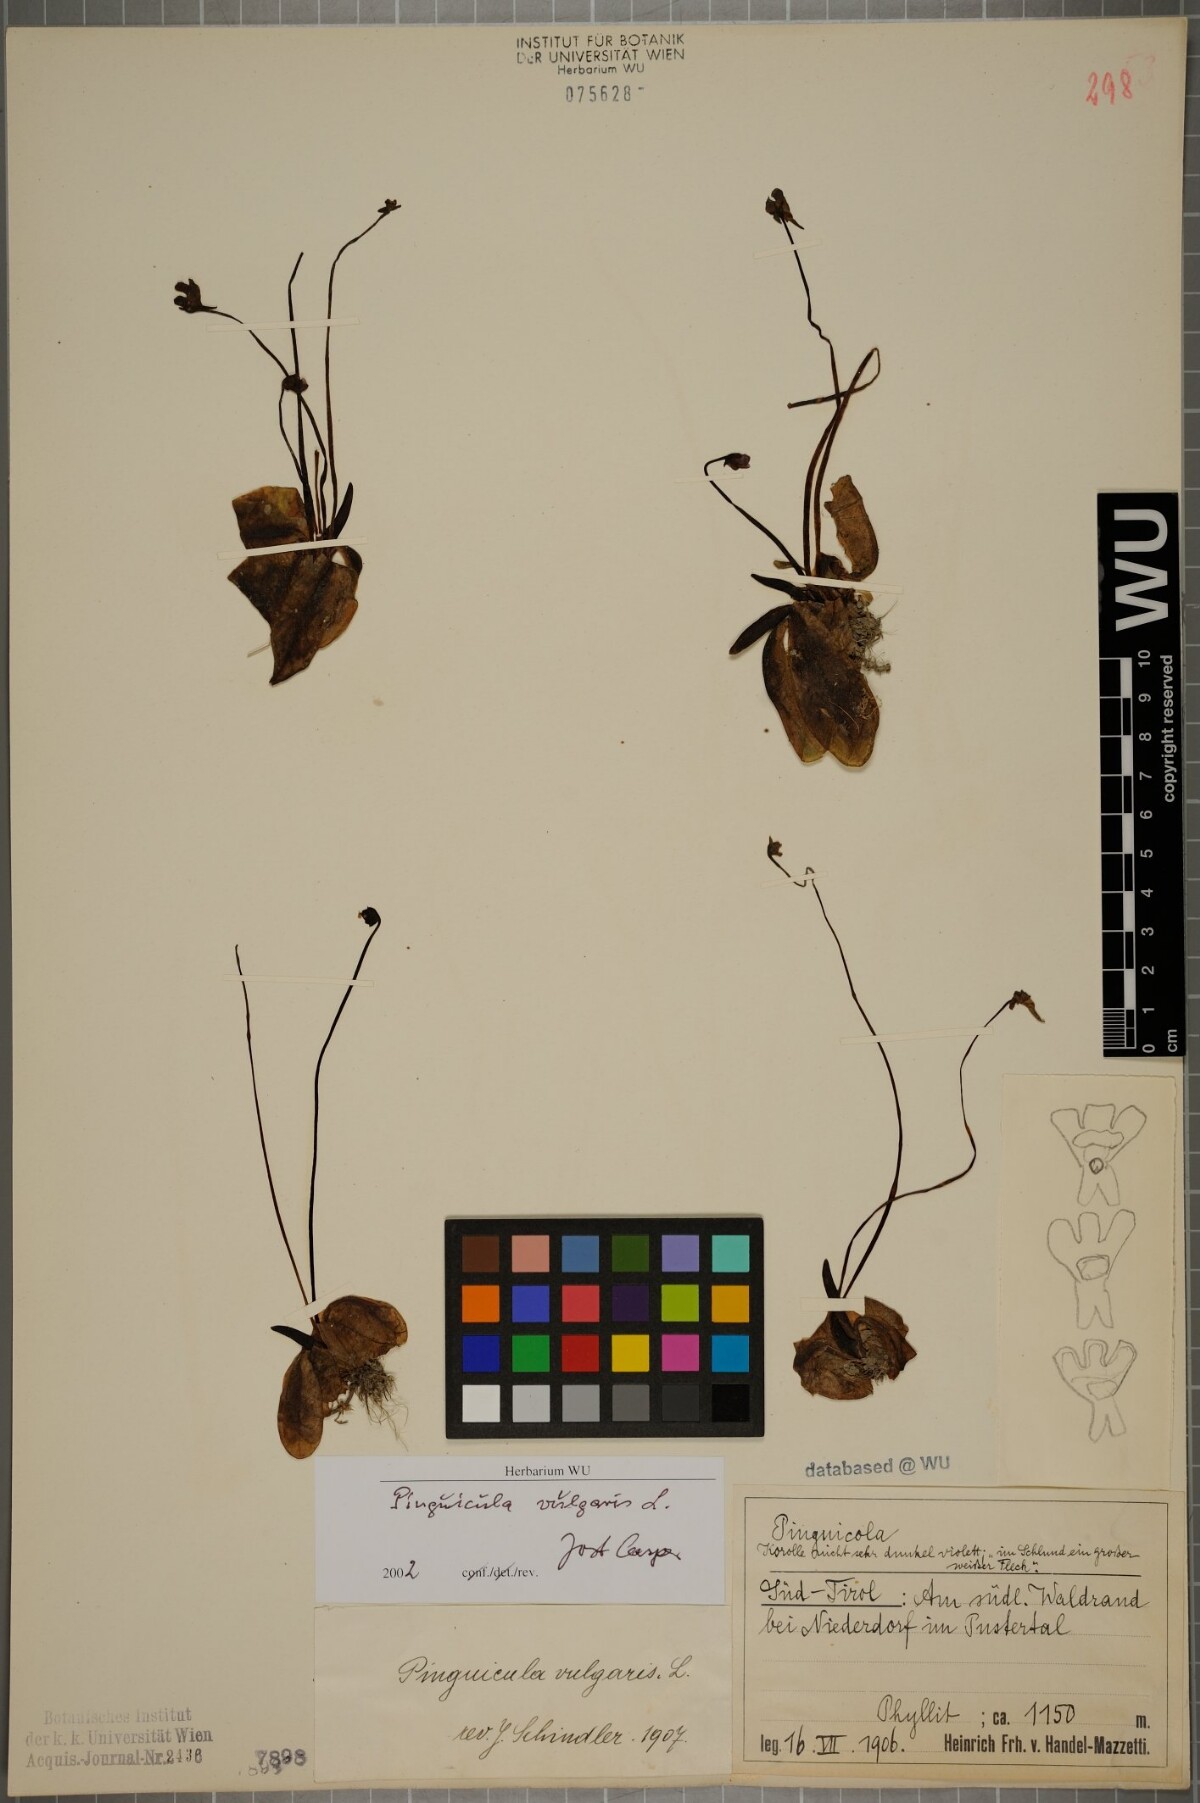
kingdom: Plantae
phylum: Tracheophyta
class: Magnoliopsida
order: Lamiales
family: Lentibulariaceae
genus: Pinguicula
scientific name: Pinguicula vulgaris
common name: Common butterwort
